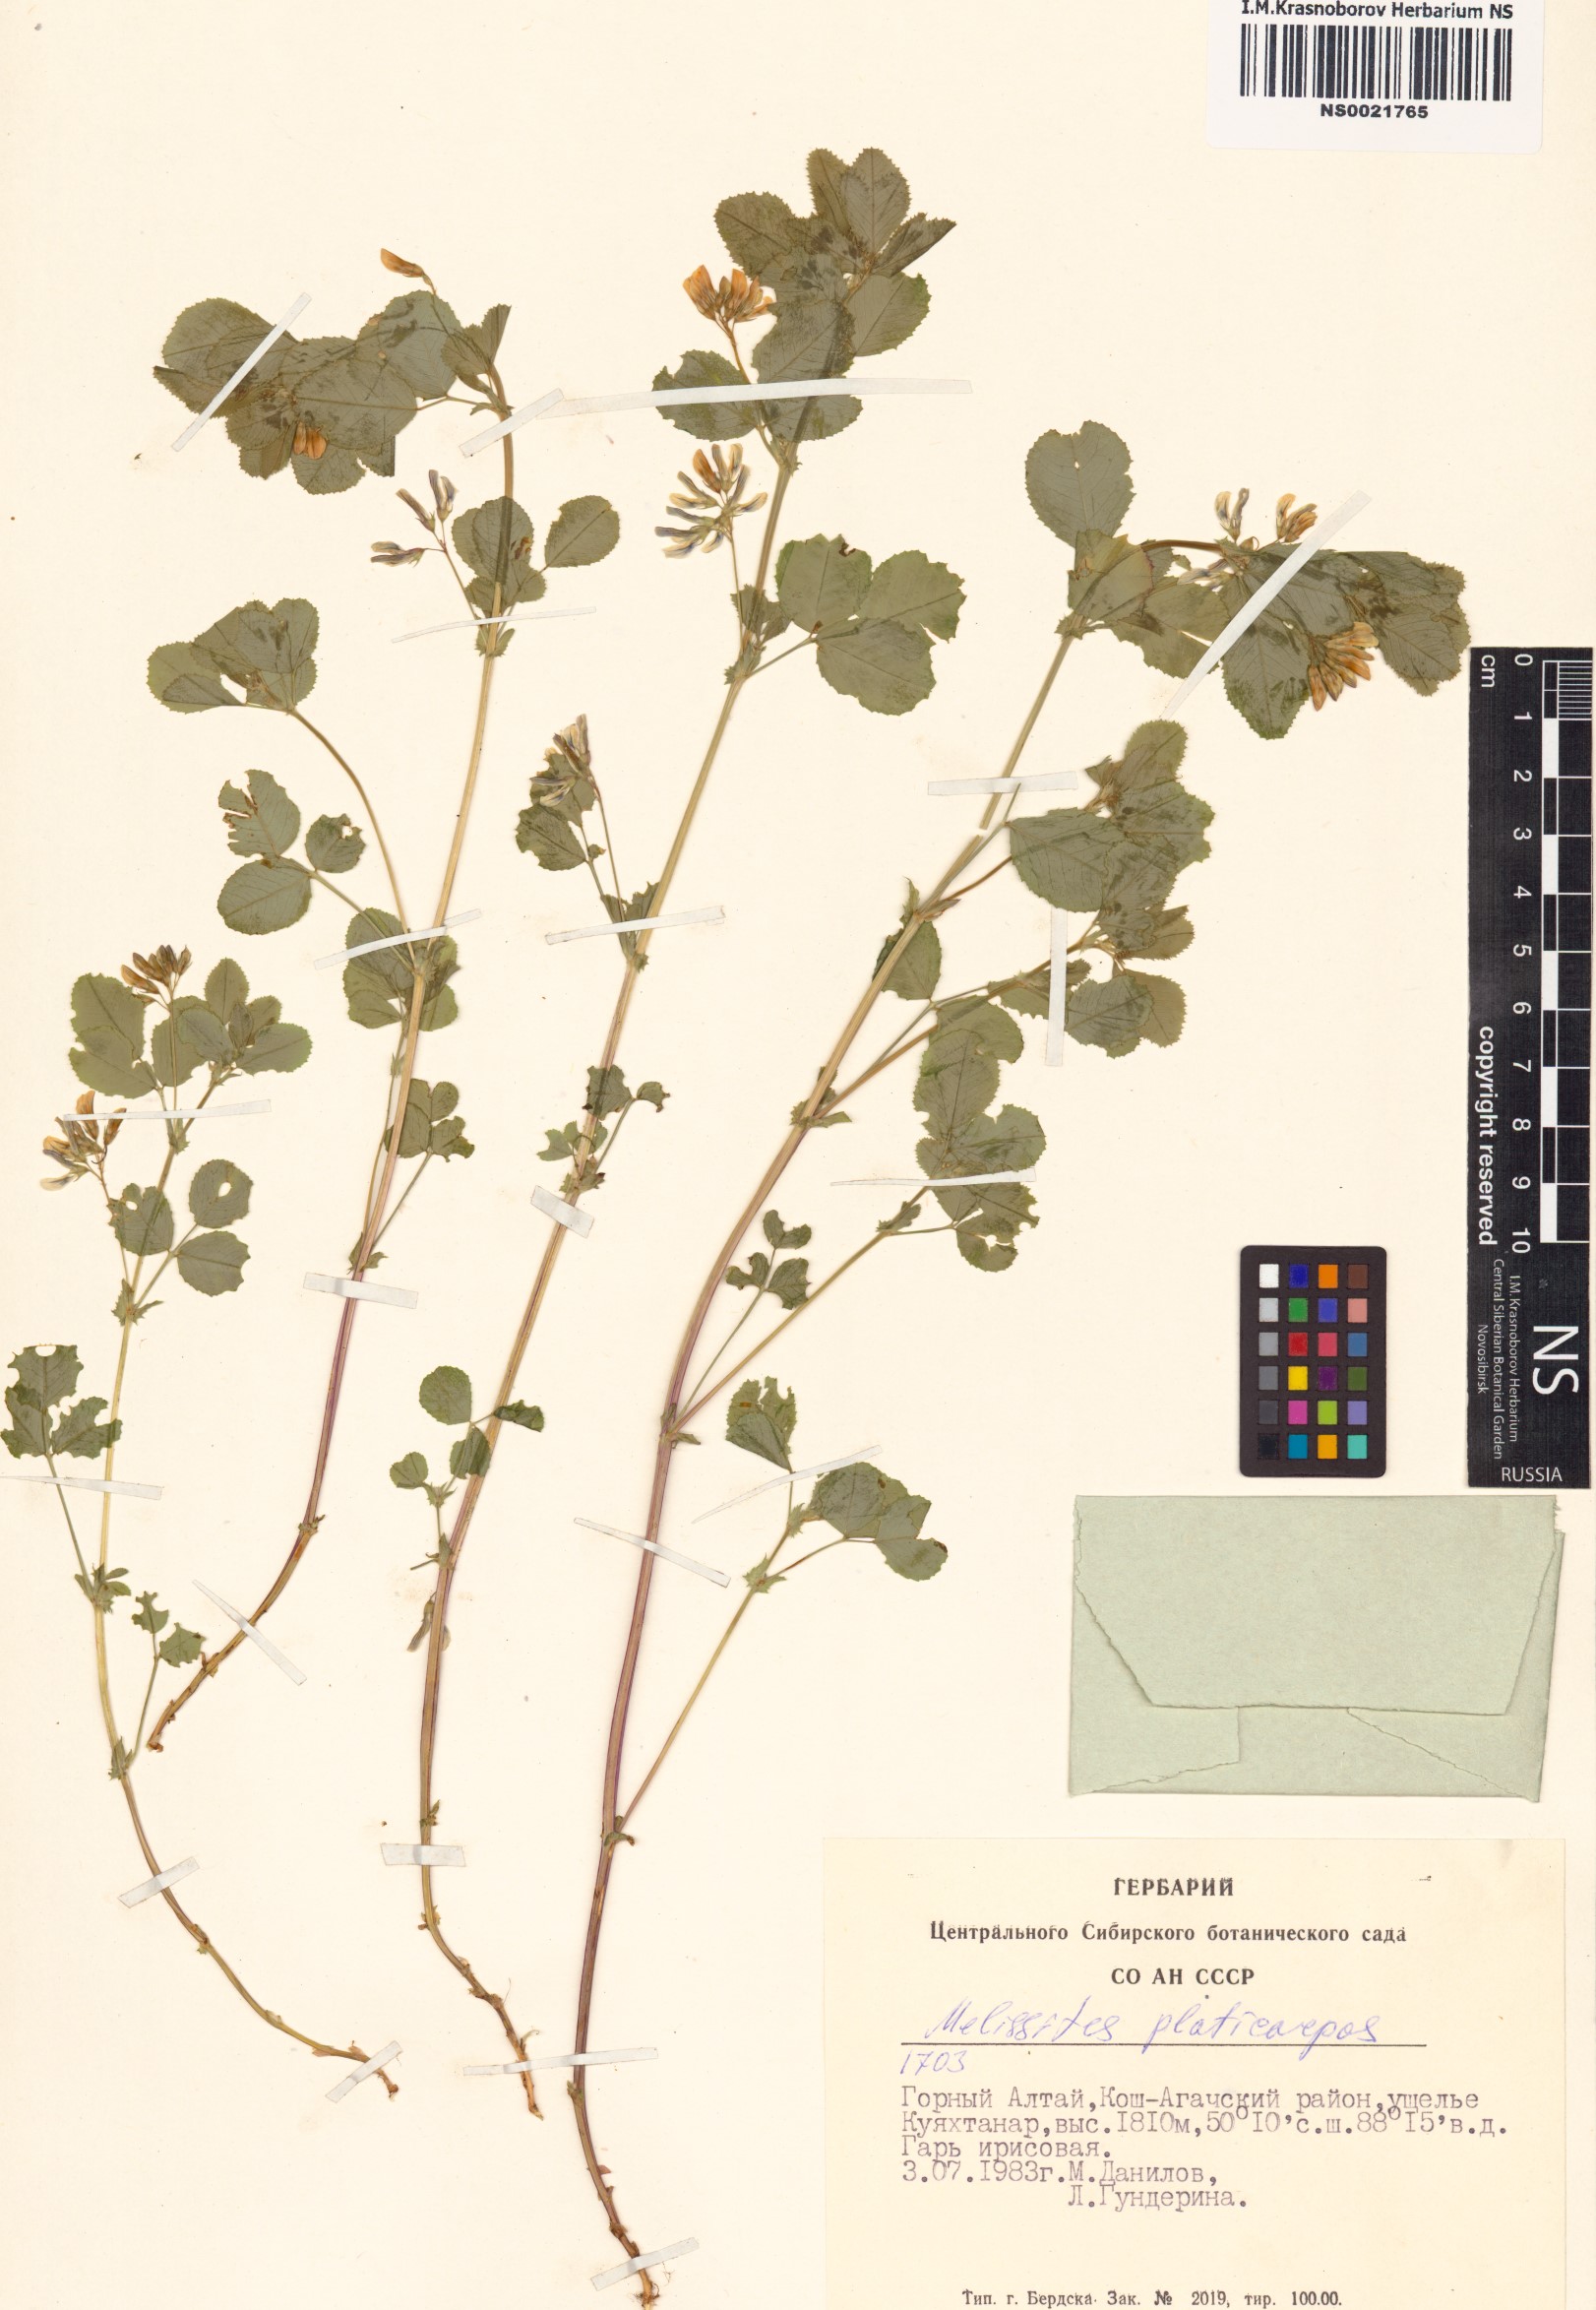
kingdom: Plantae
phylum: Tracheophyta
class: Magnoliopsida
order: Fabales
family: Fabaceae
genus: Medicago
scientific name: Medicago platycarpos
